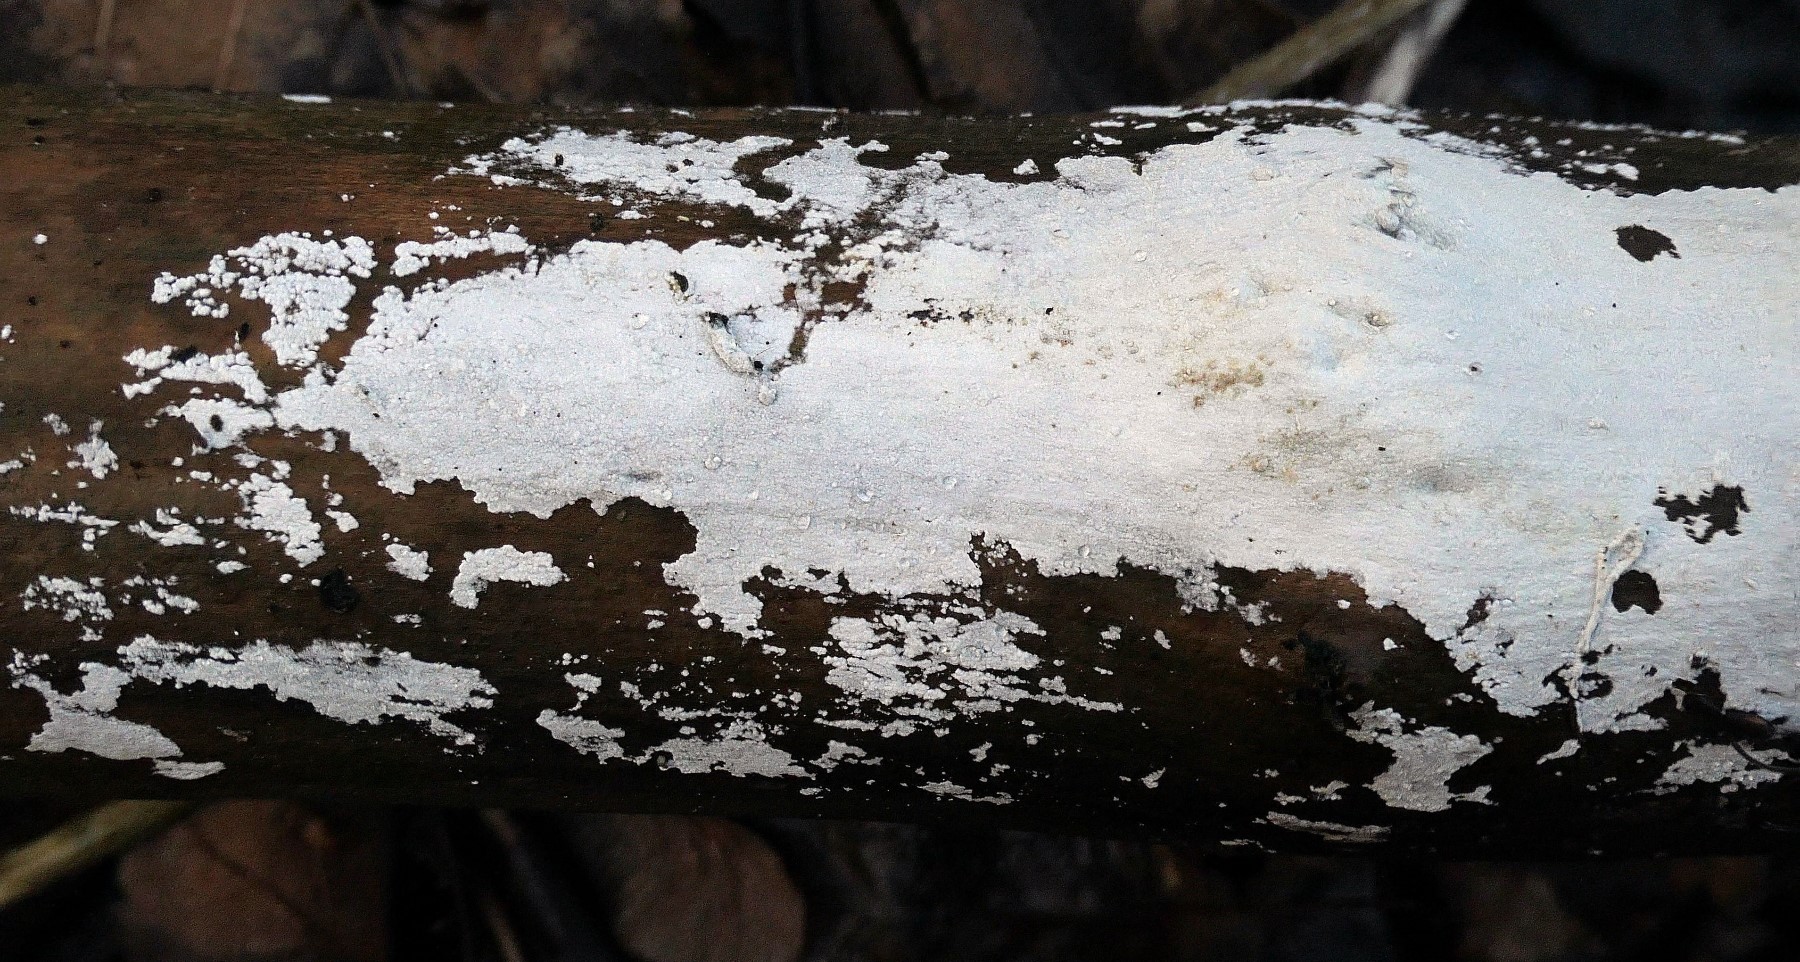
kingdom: Fungi
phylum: Basidiomycota
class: Agaricomycetes
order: Corticiales
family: Corticiaceae
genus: Lyomyces
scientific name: Lyomyces sambuci
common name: almindelig hyldehinde
